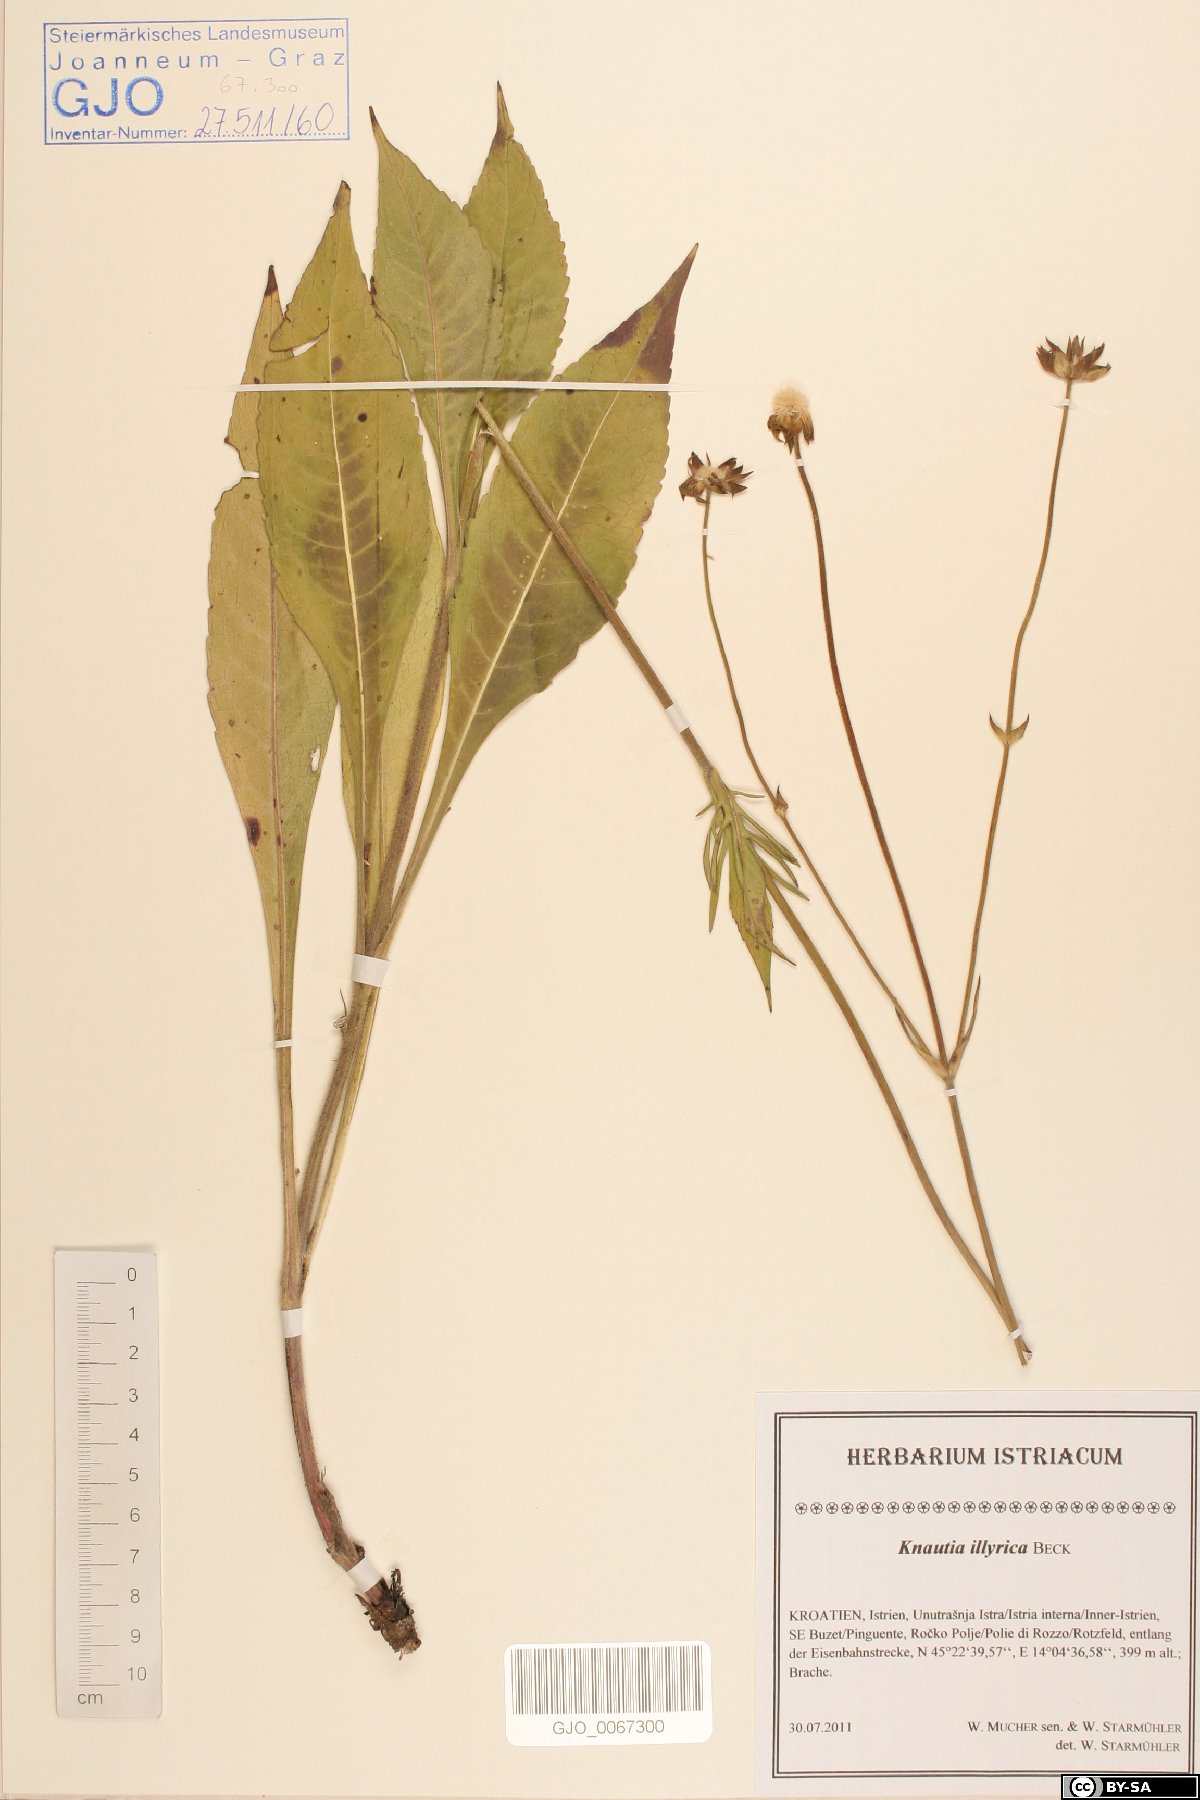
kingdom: Plantae
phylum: Tracheophyta
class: Magnoliopsida
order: Dipsacales
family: Caprifoliaceae
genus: Knautia
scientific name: Knautia illyrica
